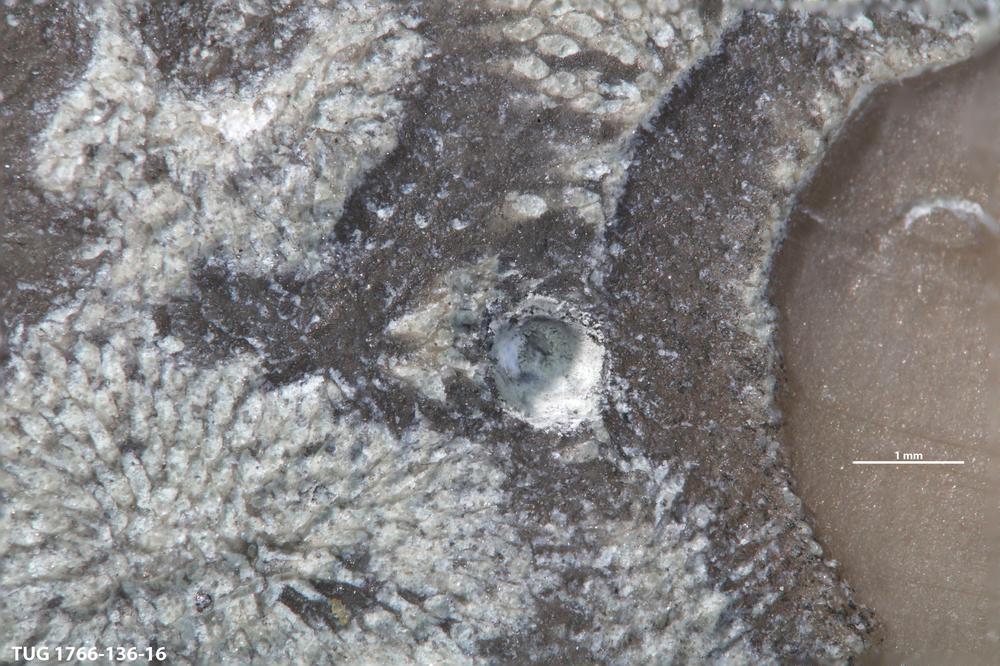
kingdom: Animalia
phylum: Sipuncula
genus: Trypanites
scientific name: Trypanites
